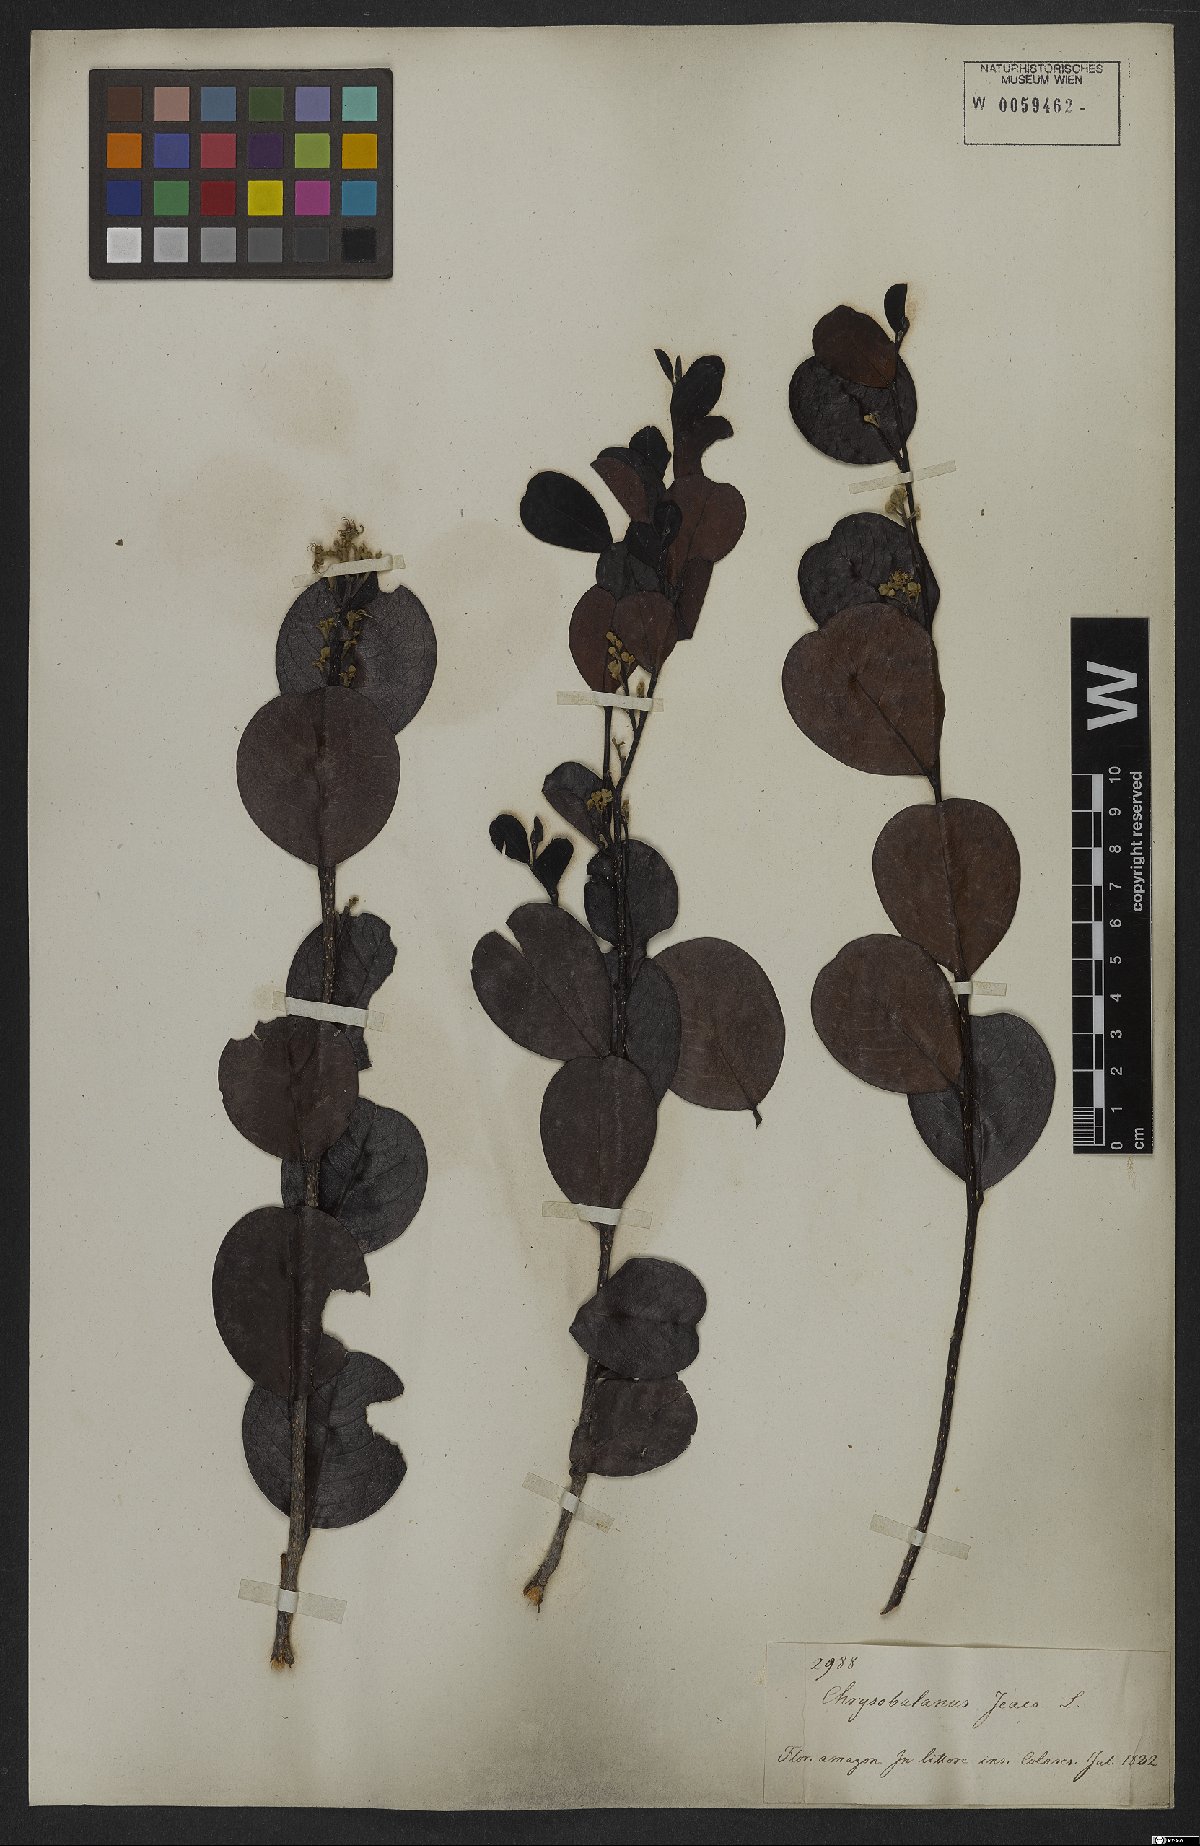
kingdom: Plantae
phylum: Tracheophyta
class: Magnoliopsida
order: Malpighiales
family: Chrysobalanaceae
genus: Chrysobalanus
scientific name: Chrysobalanus icaco
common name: Coco plum
